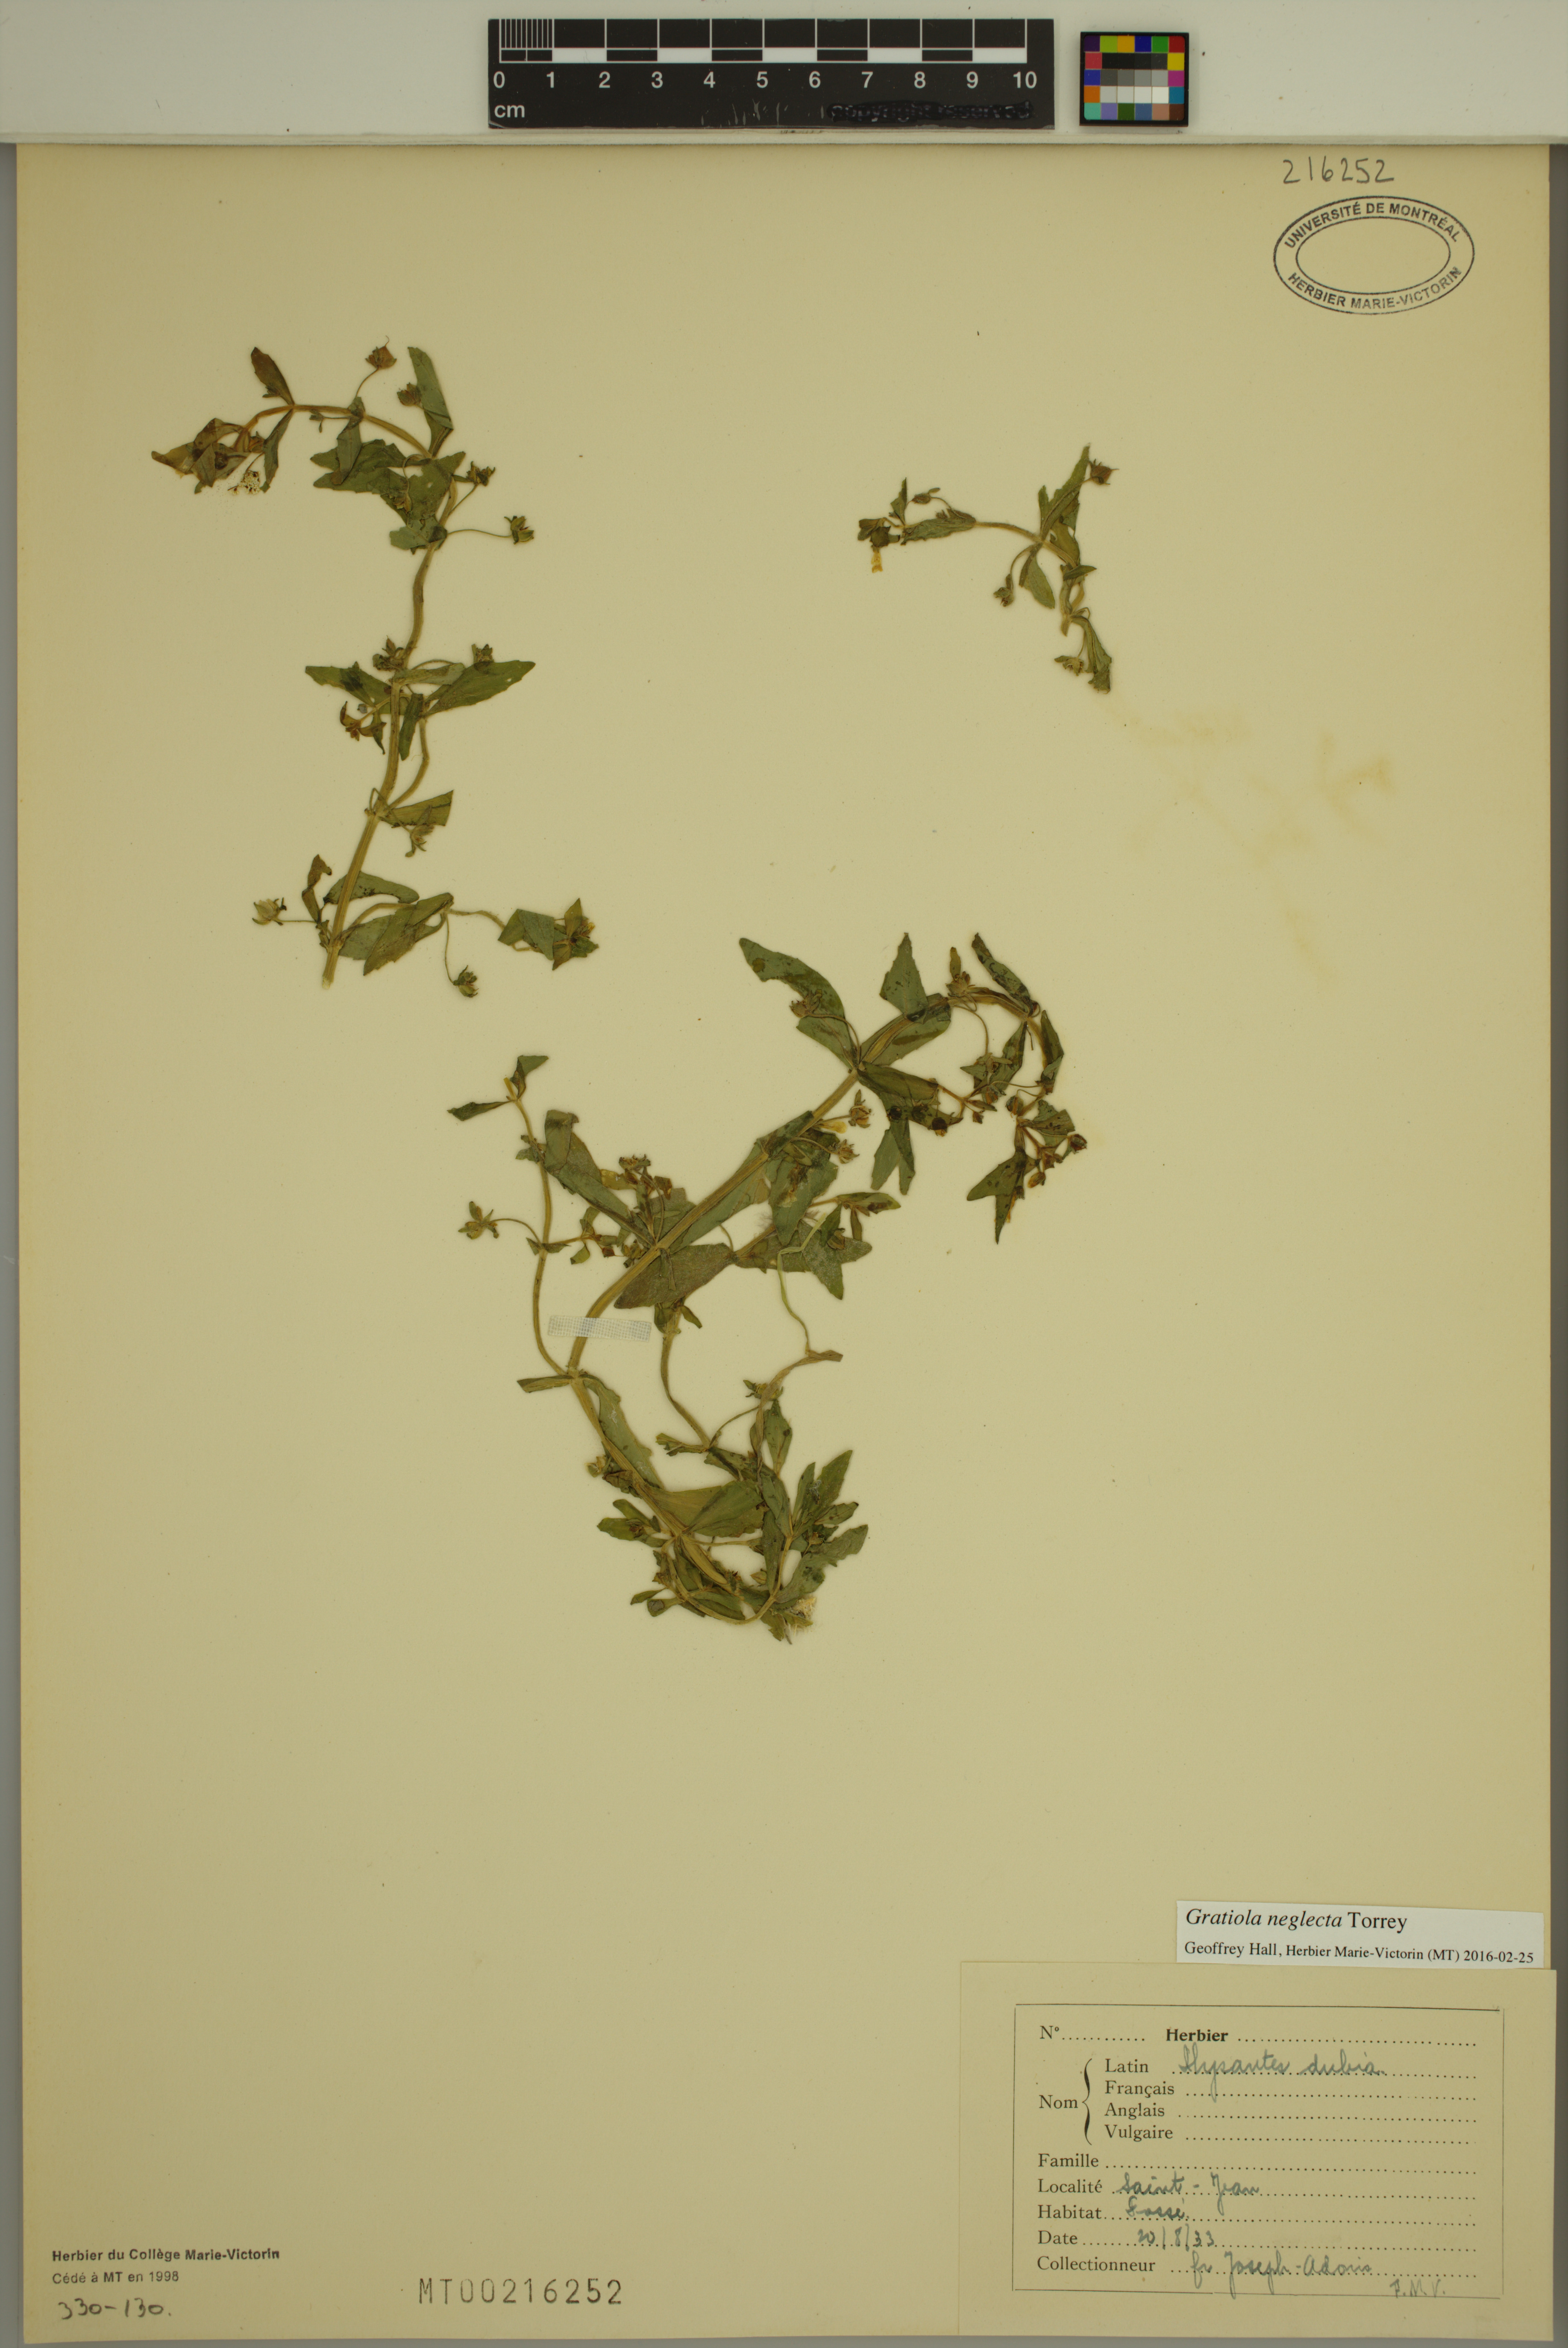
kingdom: Plantae
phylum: Tracheophyta
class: Magnoliopsida
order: Lamiales
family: Plantaginaceae
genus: Gratiola
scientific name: Gratiola neglecta
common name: American hedge-hyssop
